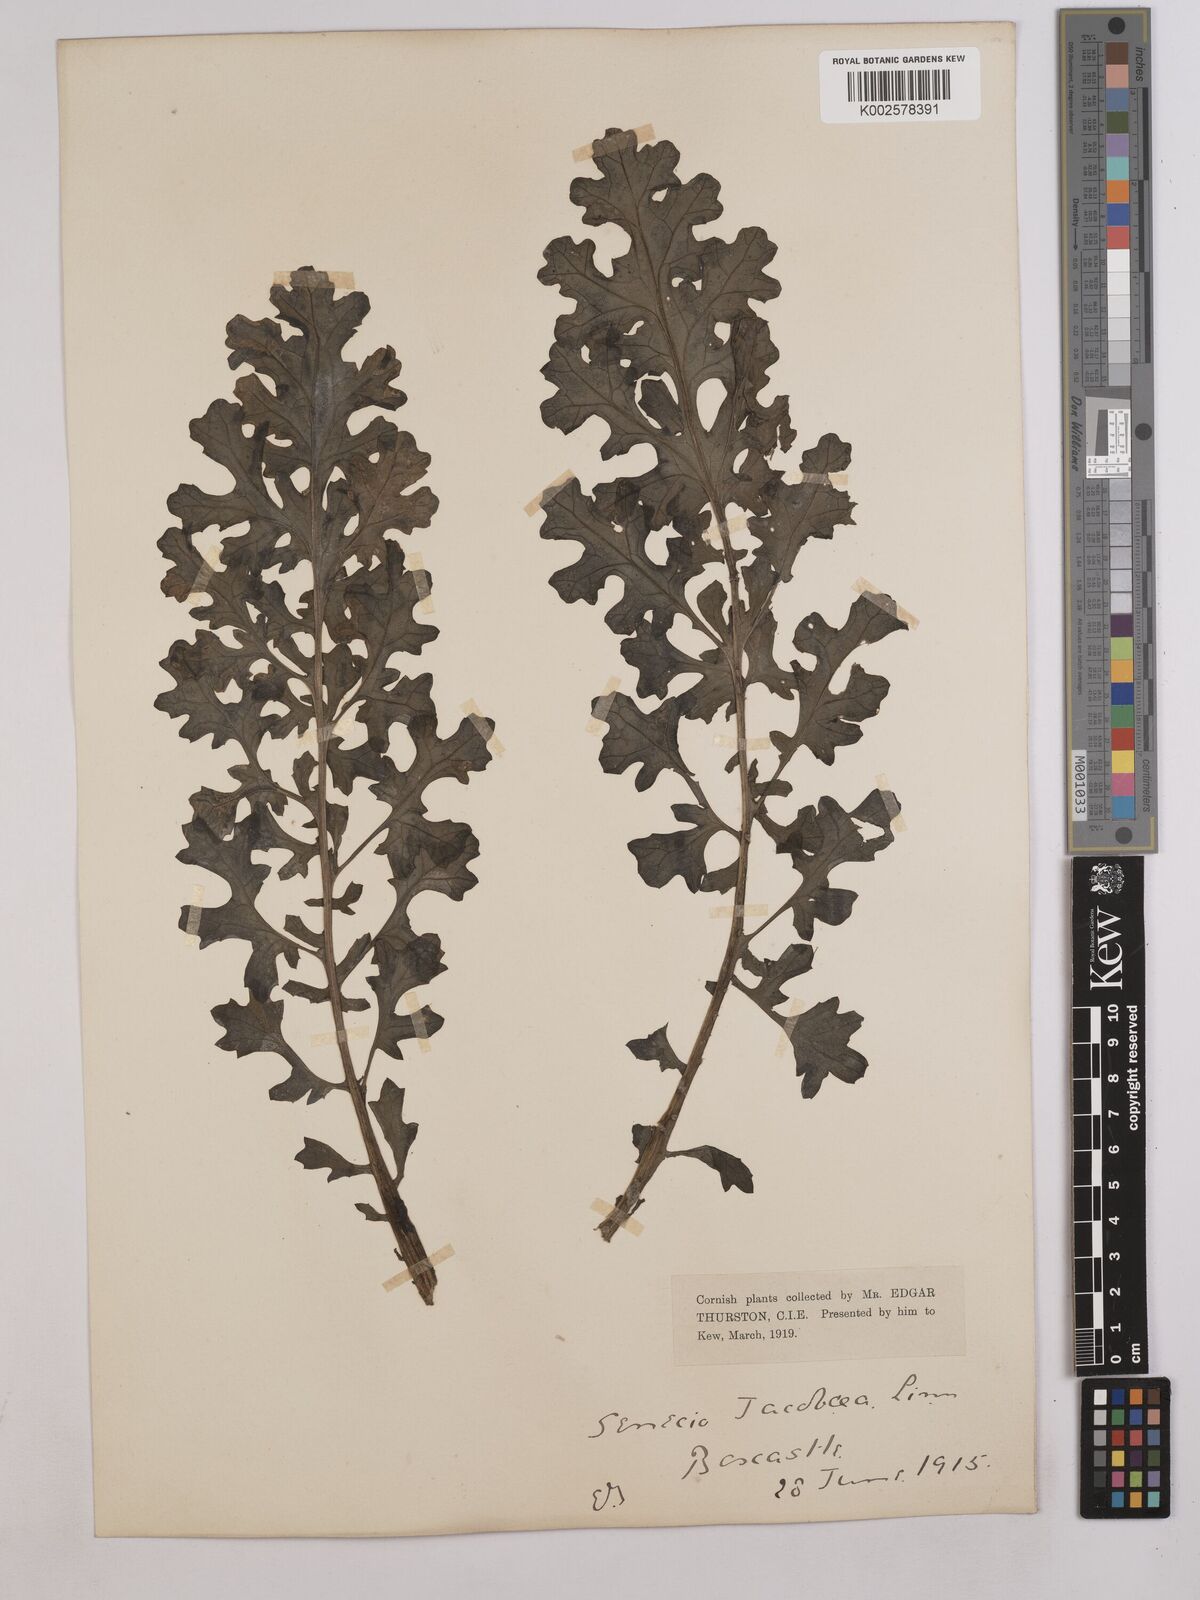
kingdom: Plantae
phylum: Tracheophyta
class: Magnoliopsida
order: Asterales
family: Asteraceae
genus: Jacobaea
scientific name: Jacobaea vulgaris
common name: Stinking willie
